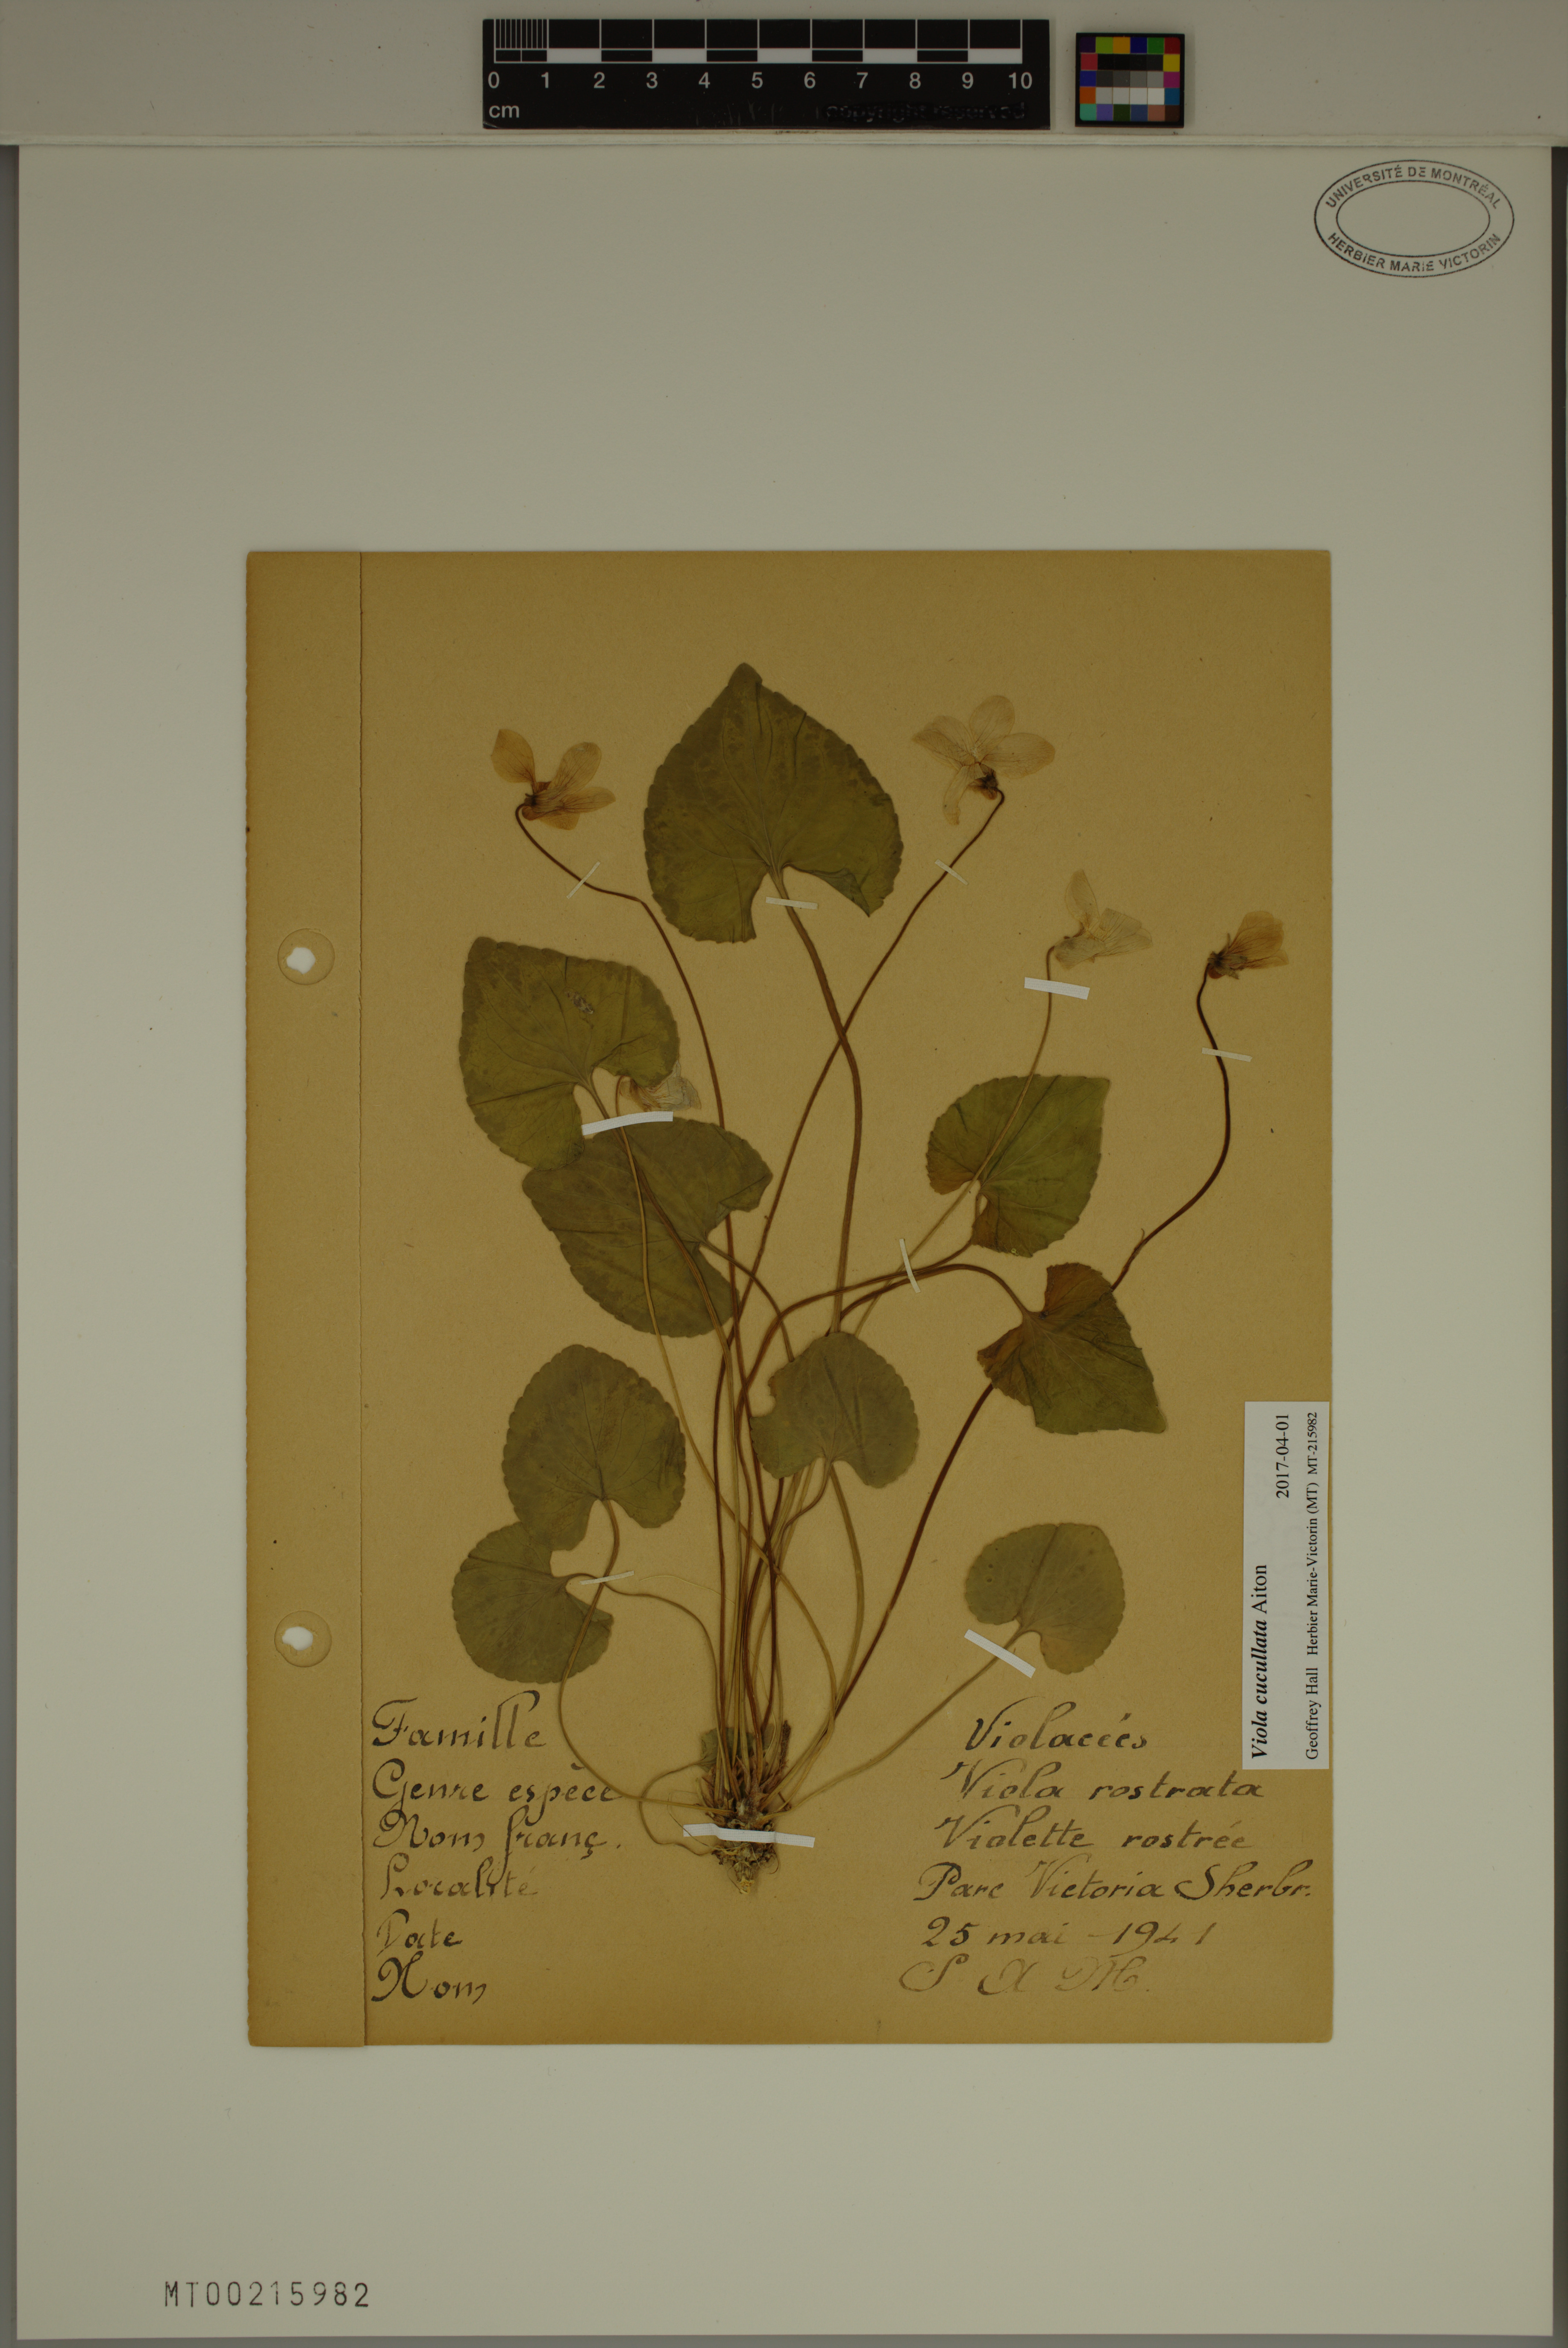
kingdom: Plantae
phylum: Tracheophyta
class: Magnoliopsida
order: Malpighiales
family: Violaceae
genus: Viola
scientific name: Viola cucullata
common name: Marsh blue violet
